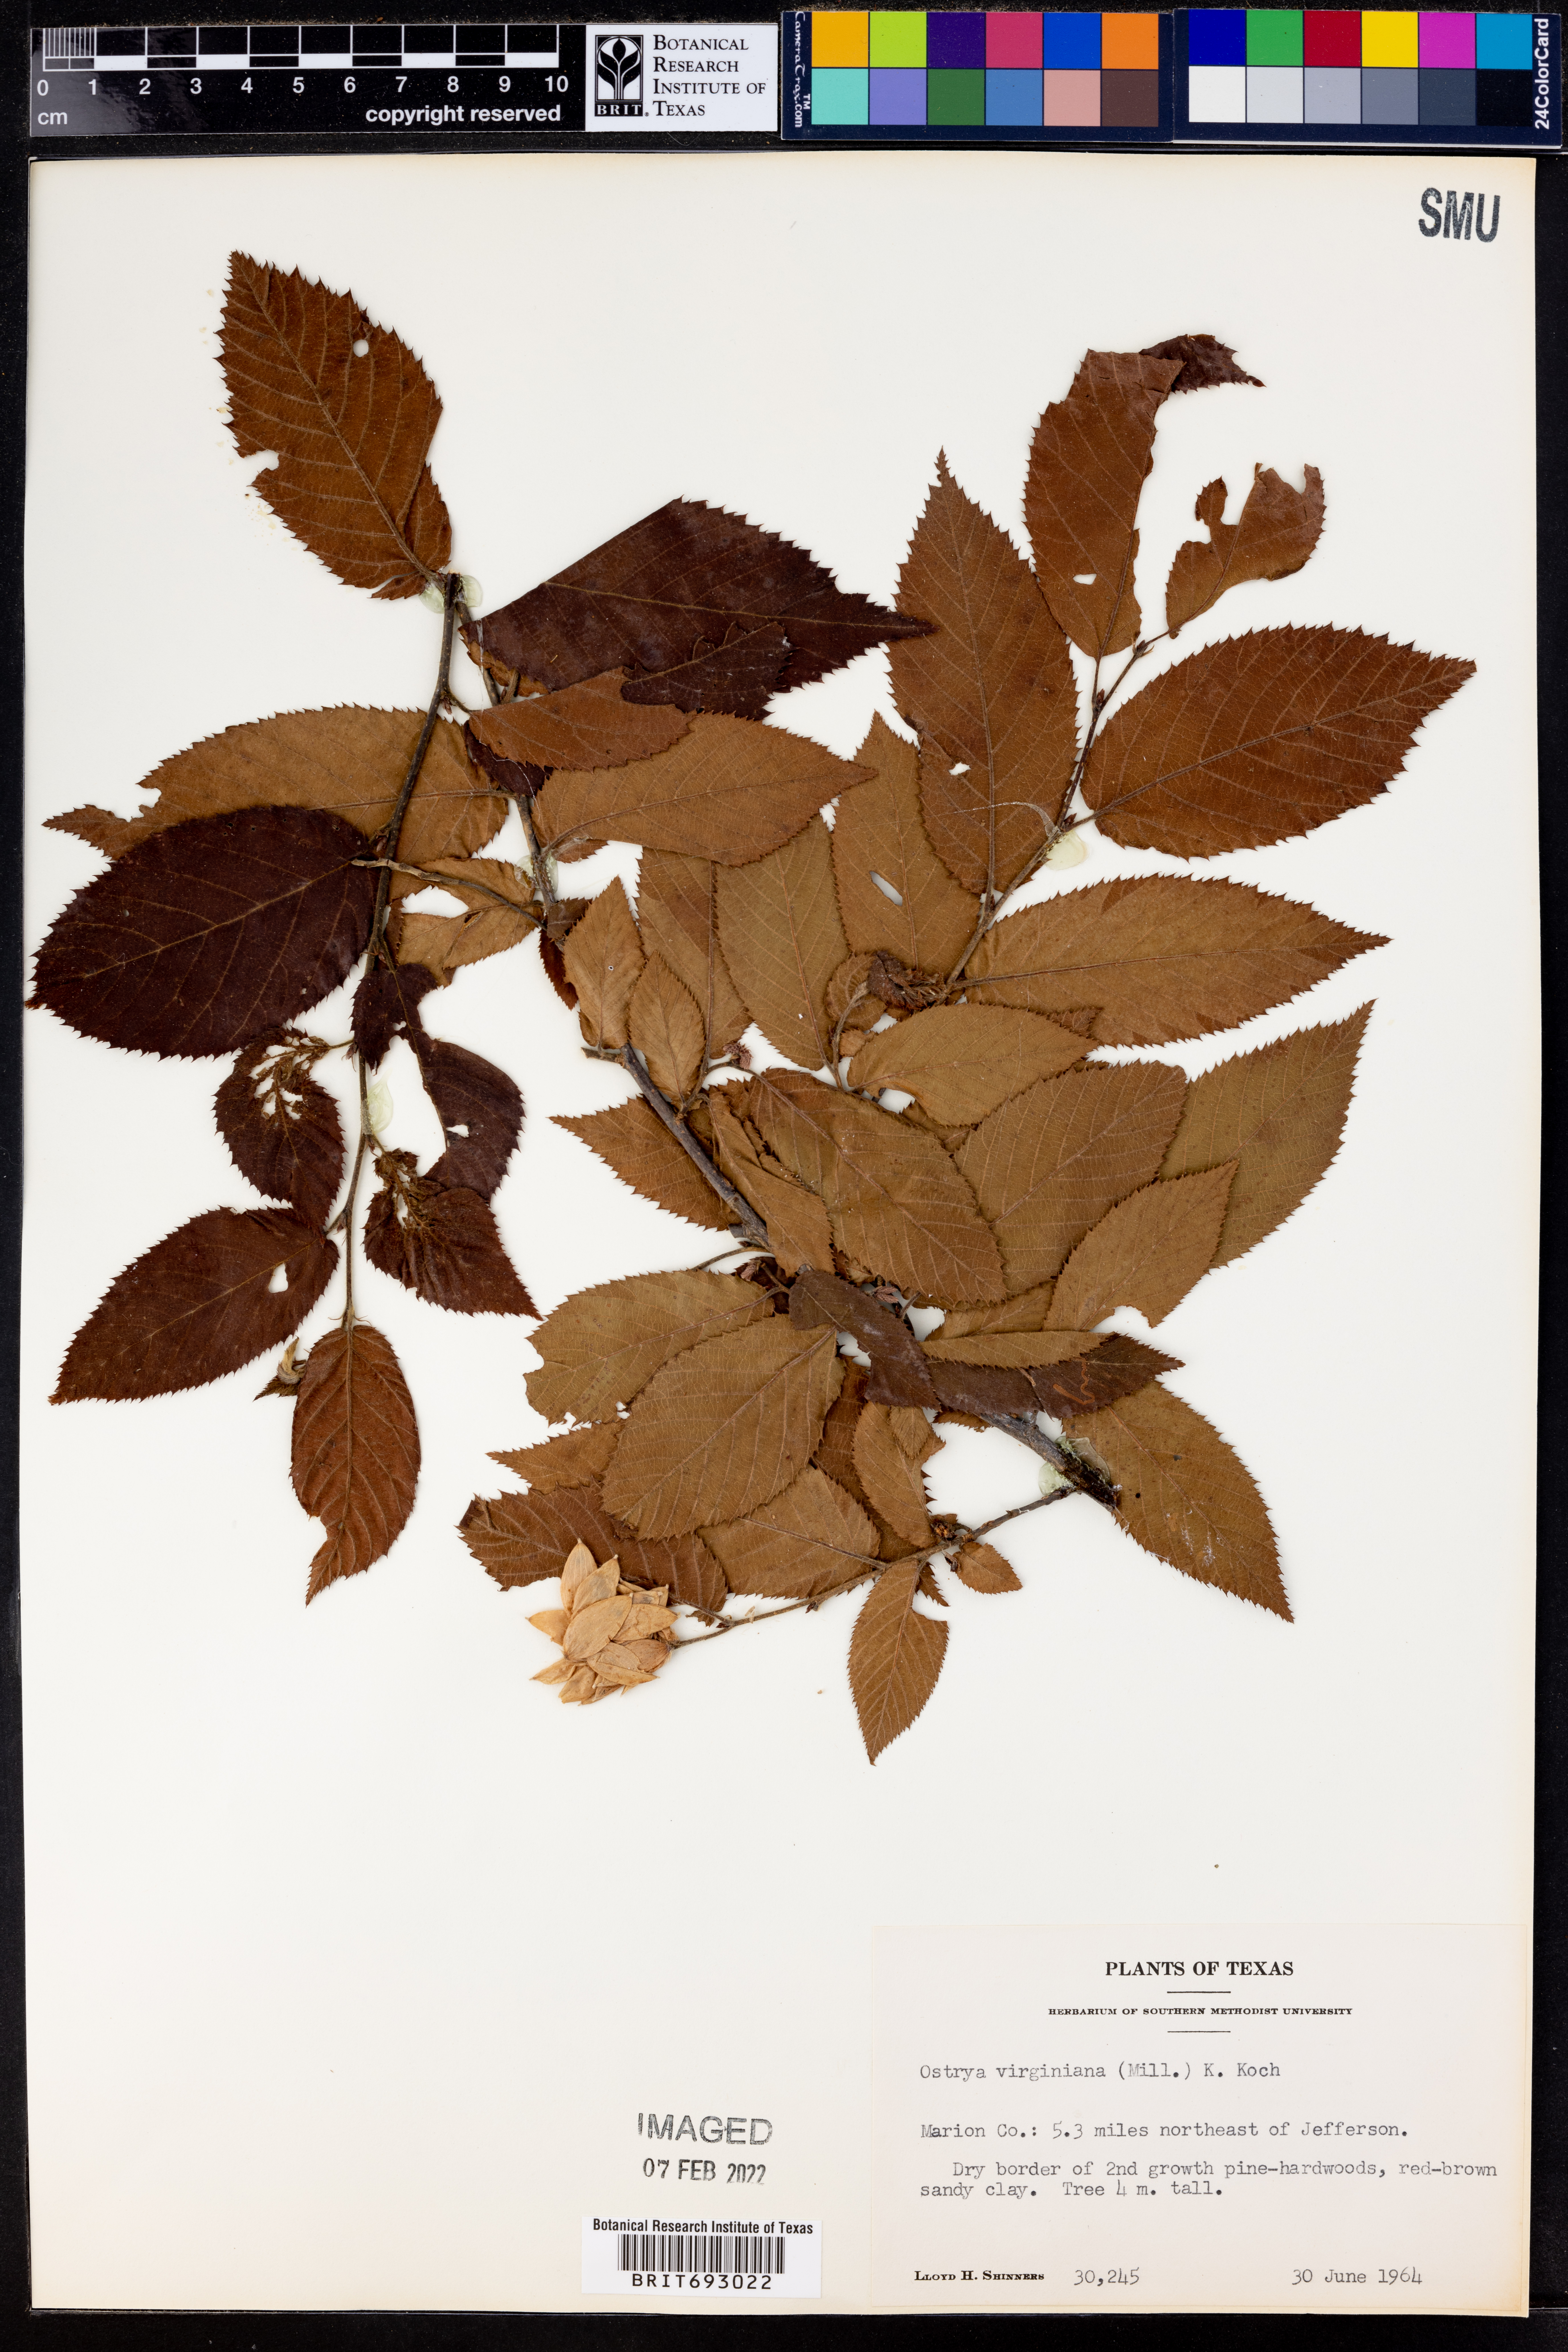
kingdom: Plantae
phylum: Tracheophyta
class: Magnoliopsida
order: Fagales
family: Betulaceae
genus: Ostrya
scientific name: Ostrya virginiana
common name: Ironwood
